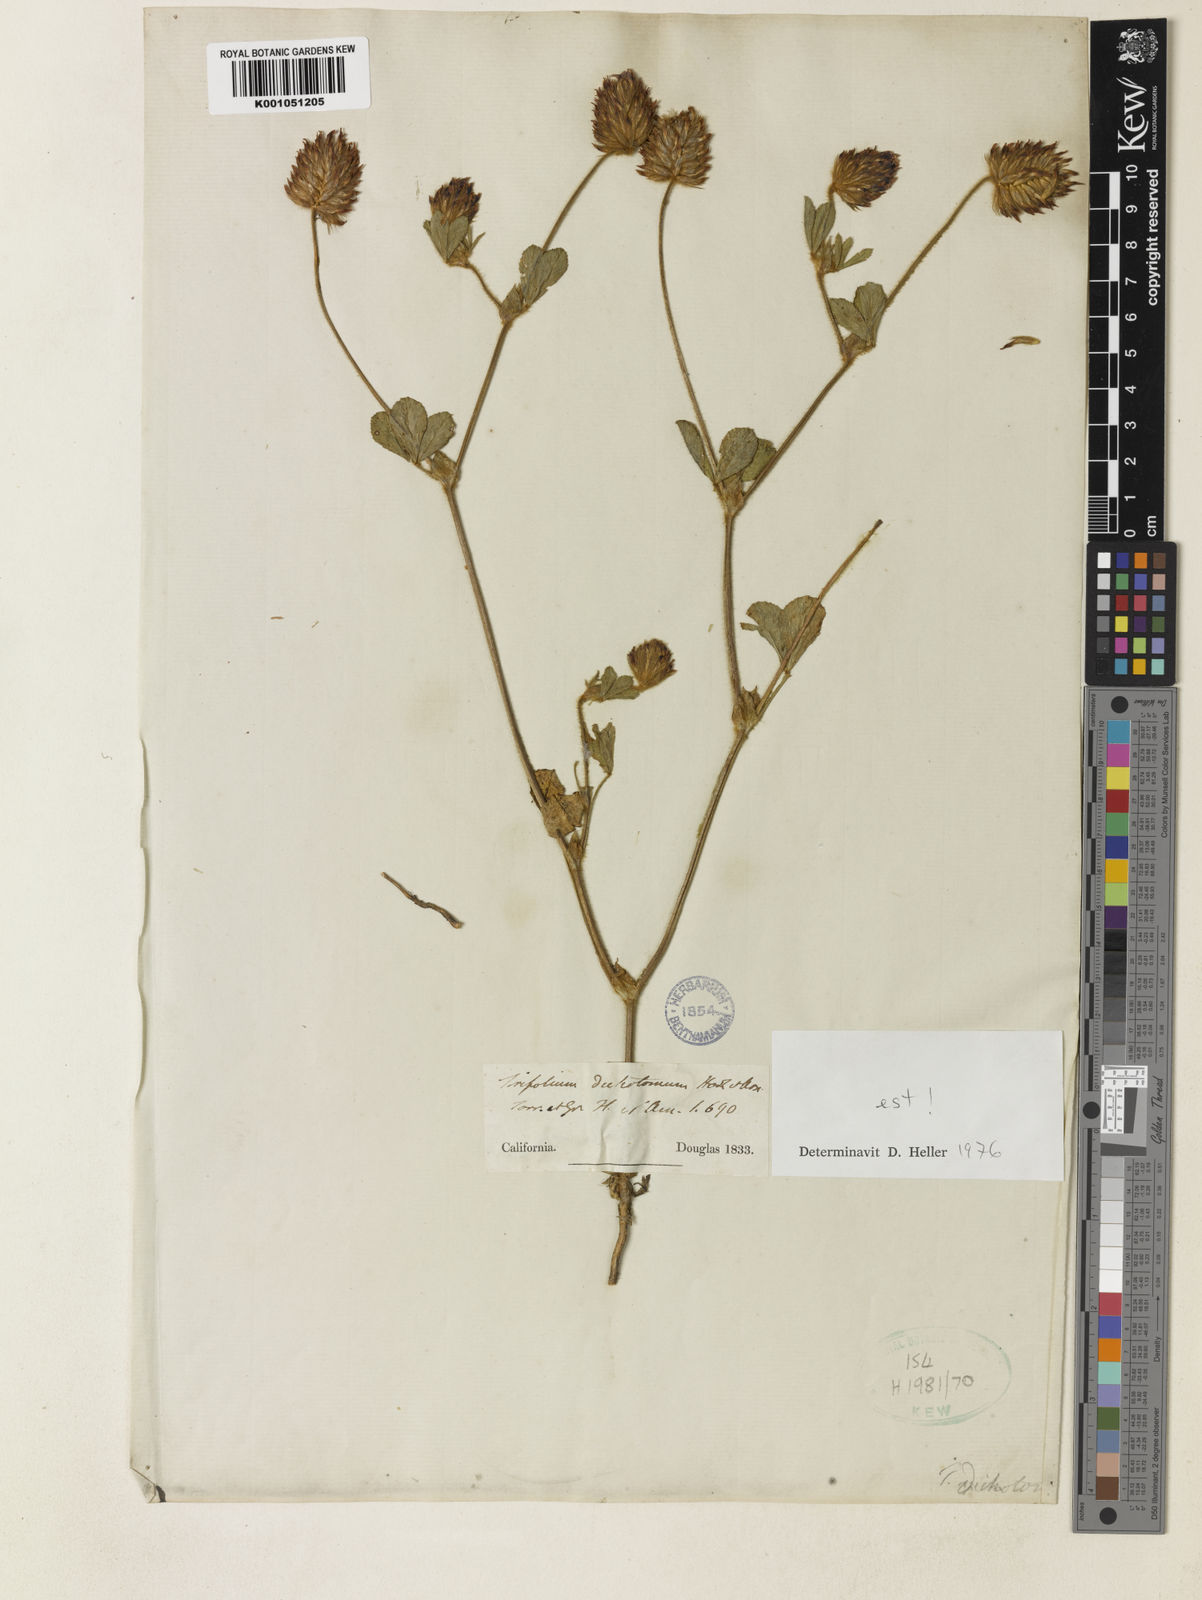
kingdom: Plantae
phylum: Tracheophyta
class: Magnoliopsida
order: Fabales
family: Fabaceae
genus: Trifolium
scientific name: Trifolium dichotomum
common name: Branched indian clover
